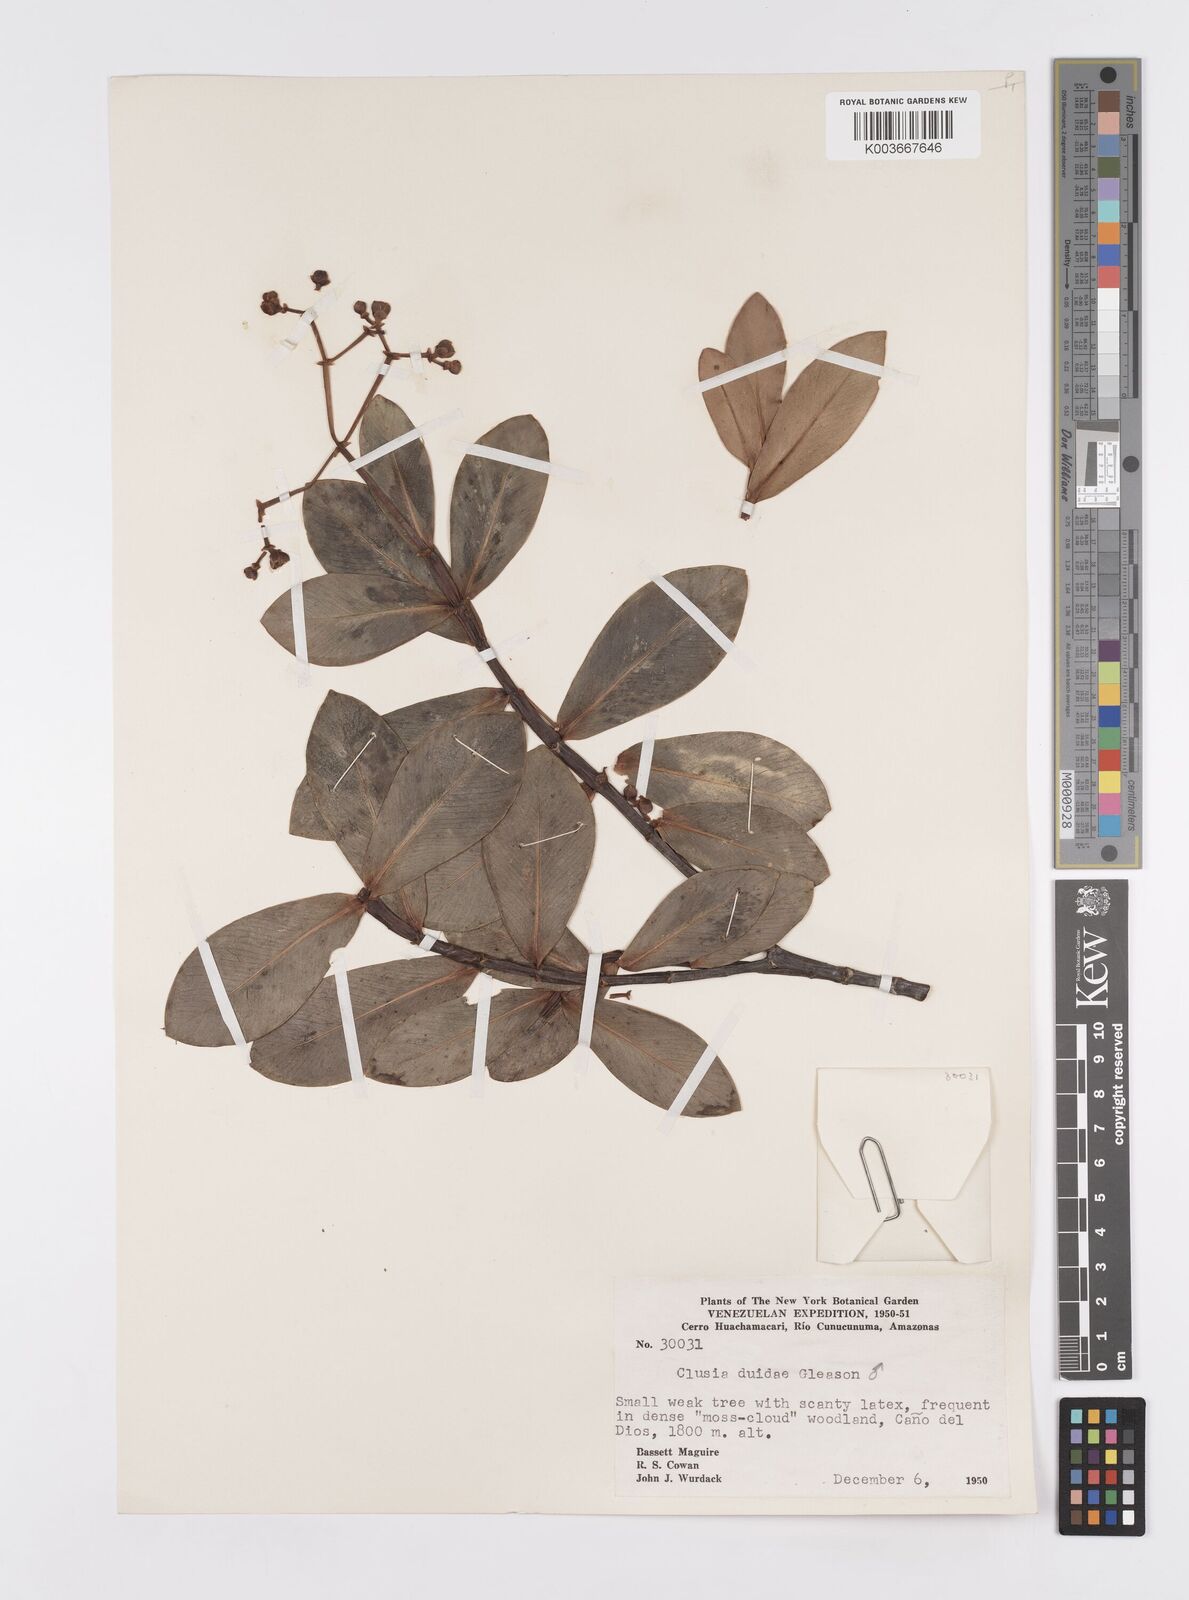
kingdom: Plantae
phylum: Tracheophyta
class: Magnoliopsida
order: Malpighiales
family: Clusiaceae
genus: Clusia
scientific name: Clusia duidae
